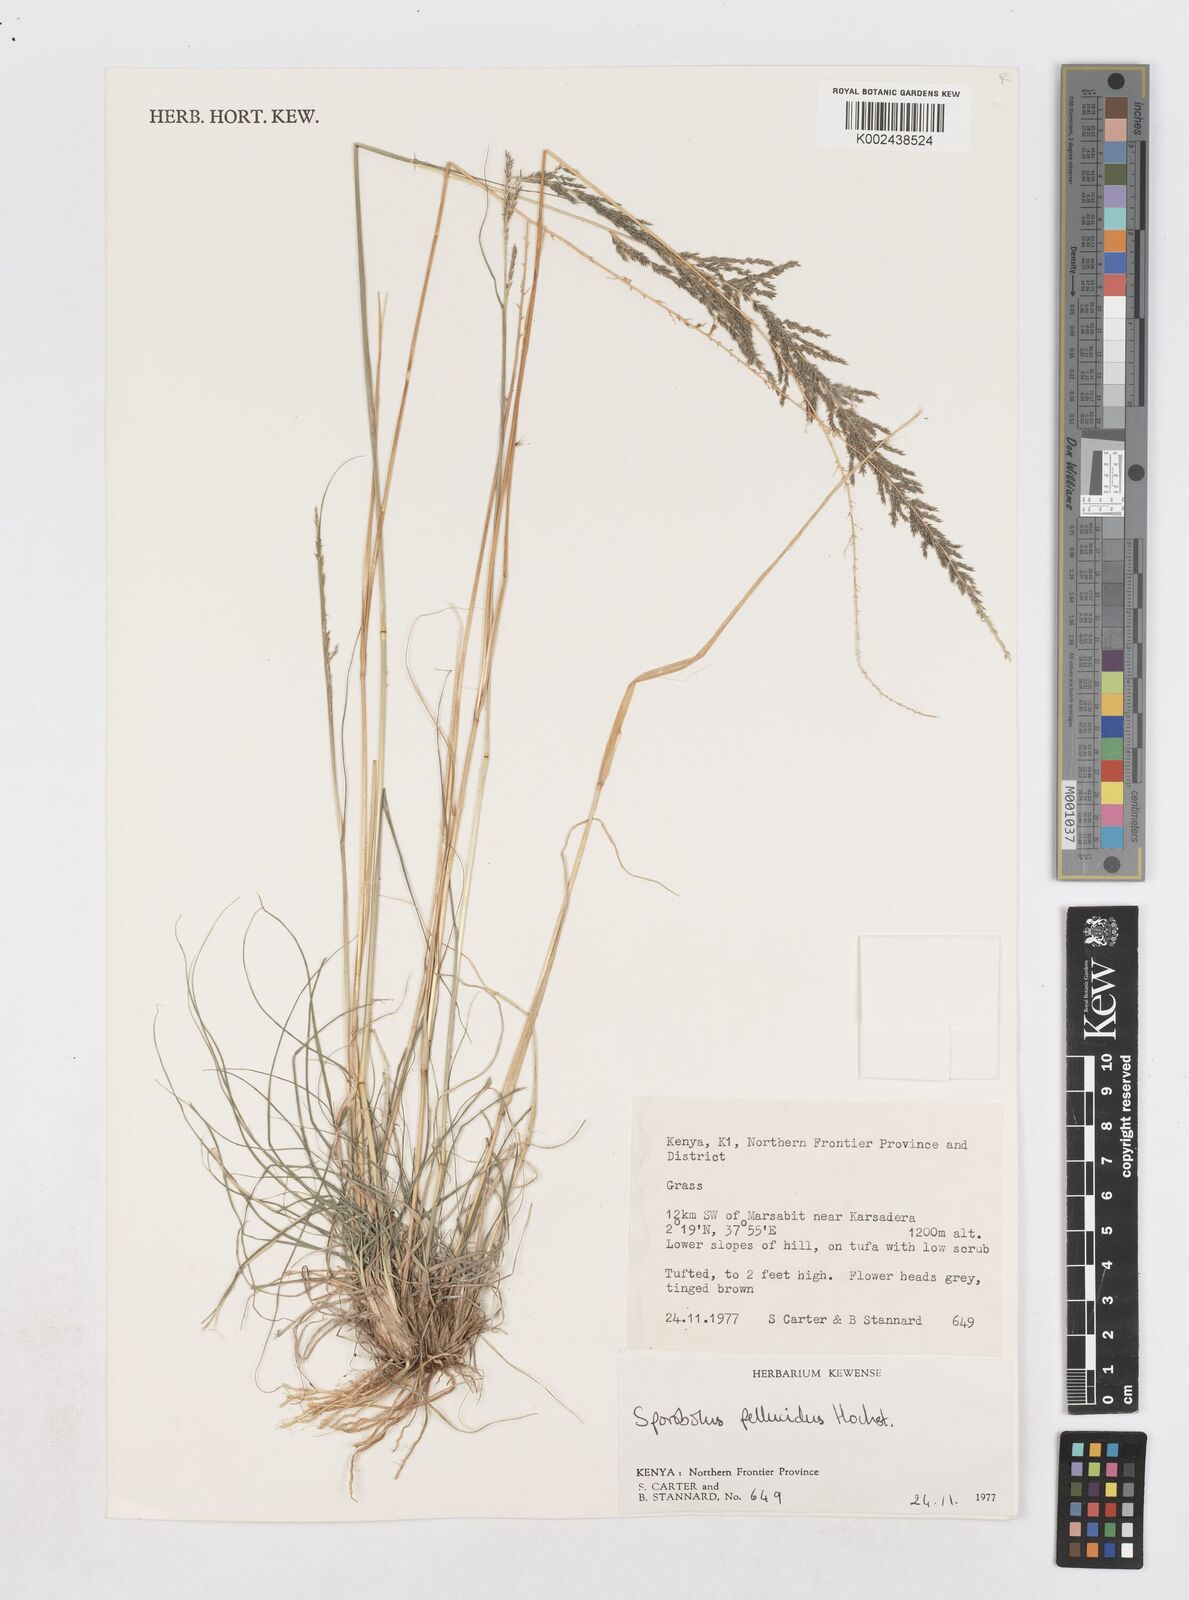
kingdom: Plantae
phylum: Tracheophyta
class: Liliopsida
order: Poales
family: Poaceae
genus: Sporobolus
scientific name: Sporobolus pellucidus
